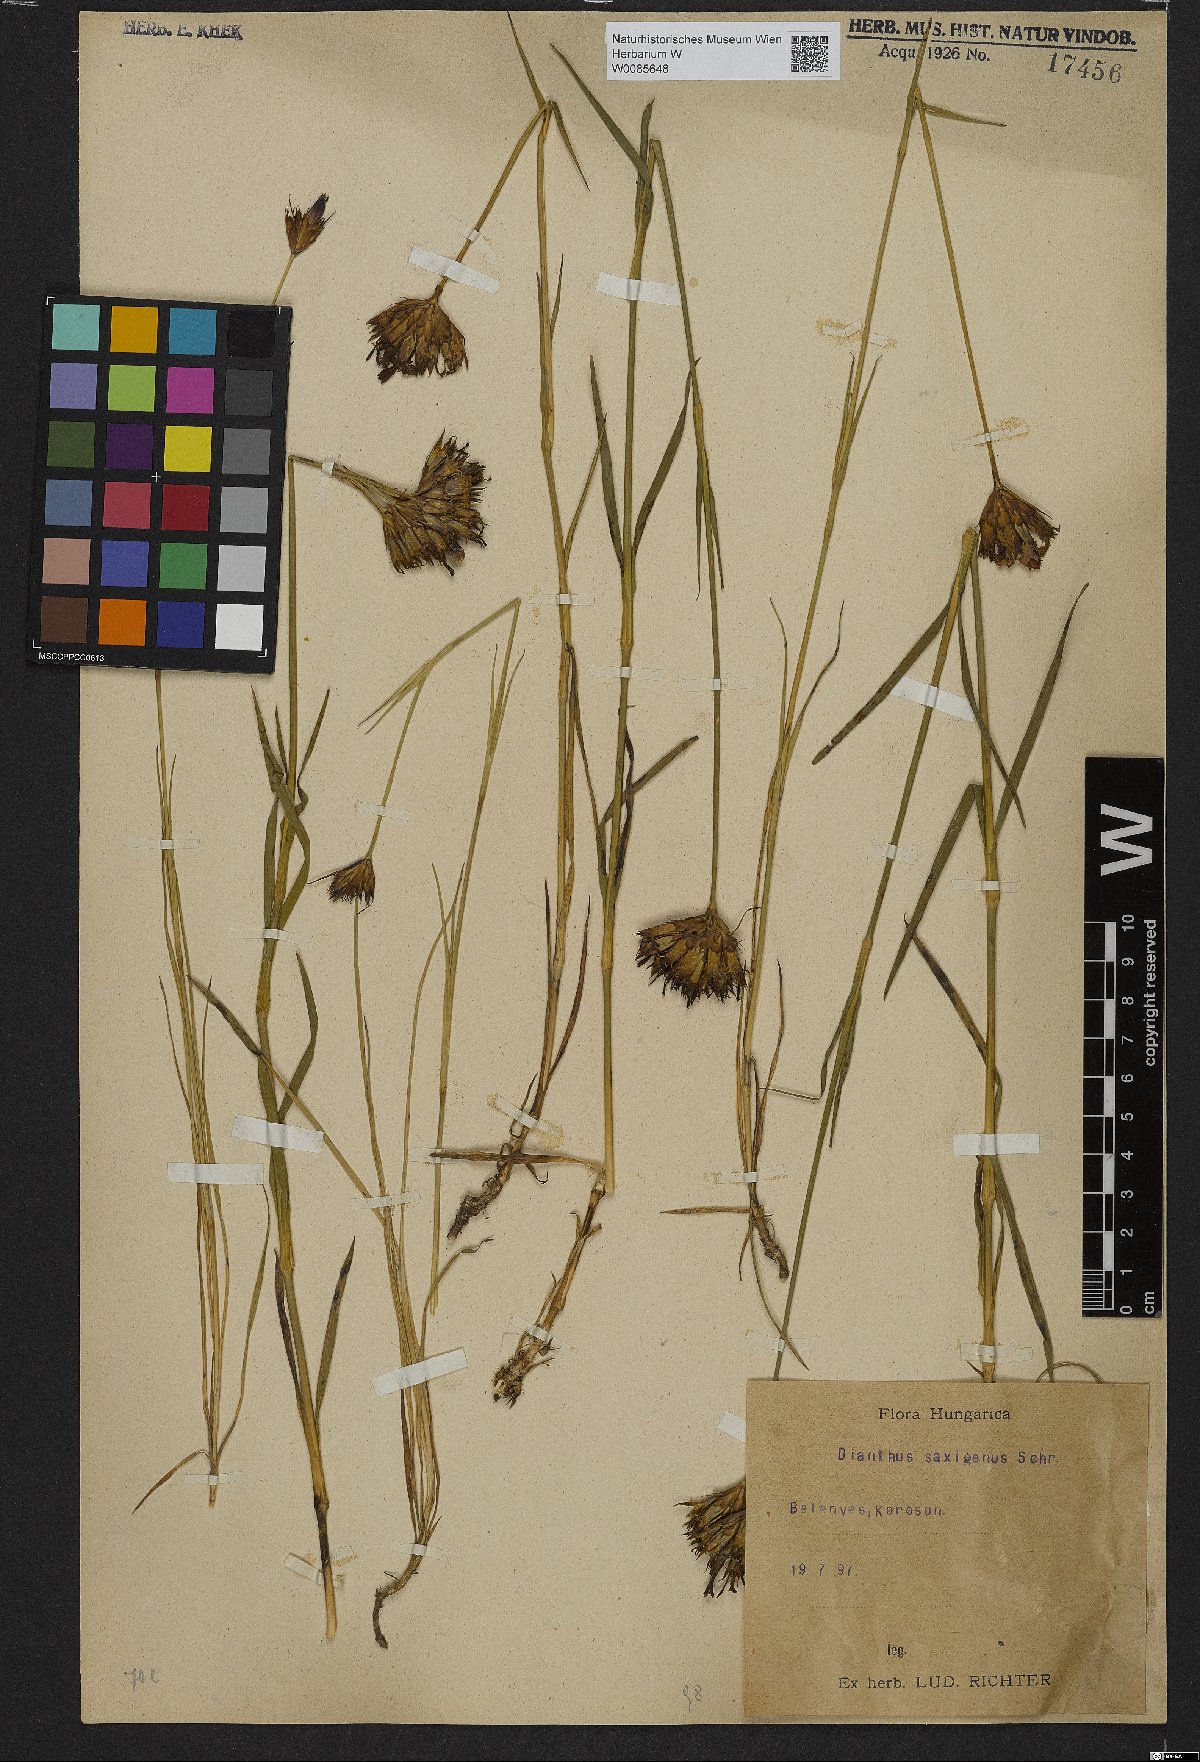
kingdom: Plantae
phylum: Tracheophyta
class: Magnoliopsida
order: Caryophyllales
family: Caryophyllaceae
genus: Dianthus
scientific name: Dianthus
